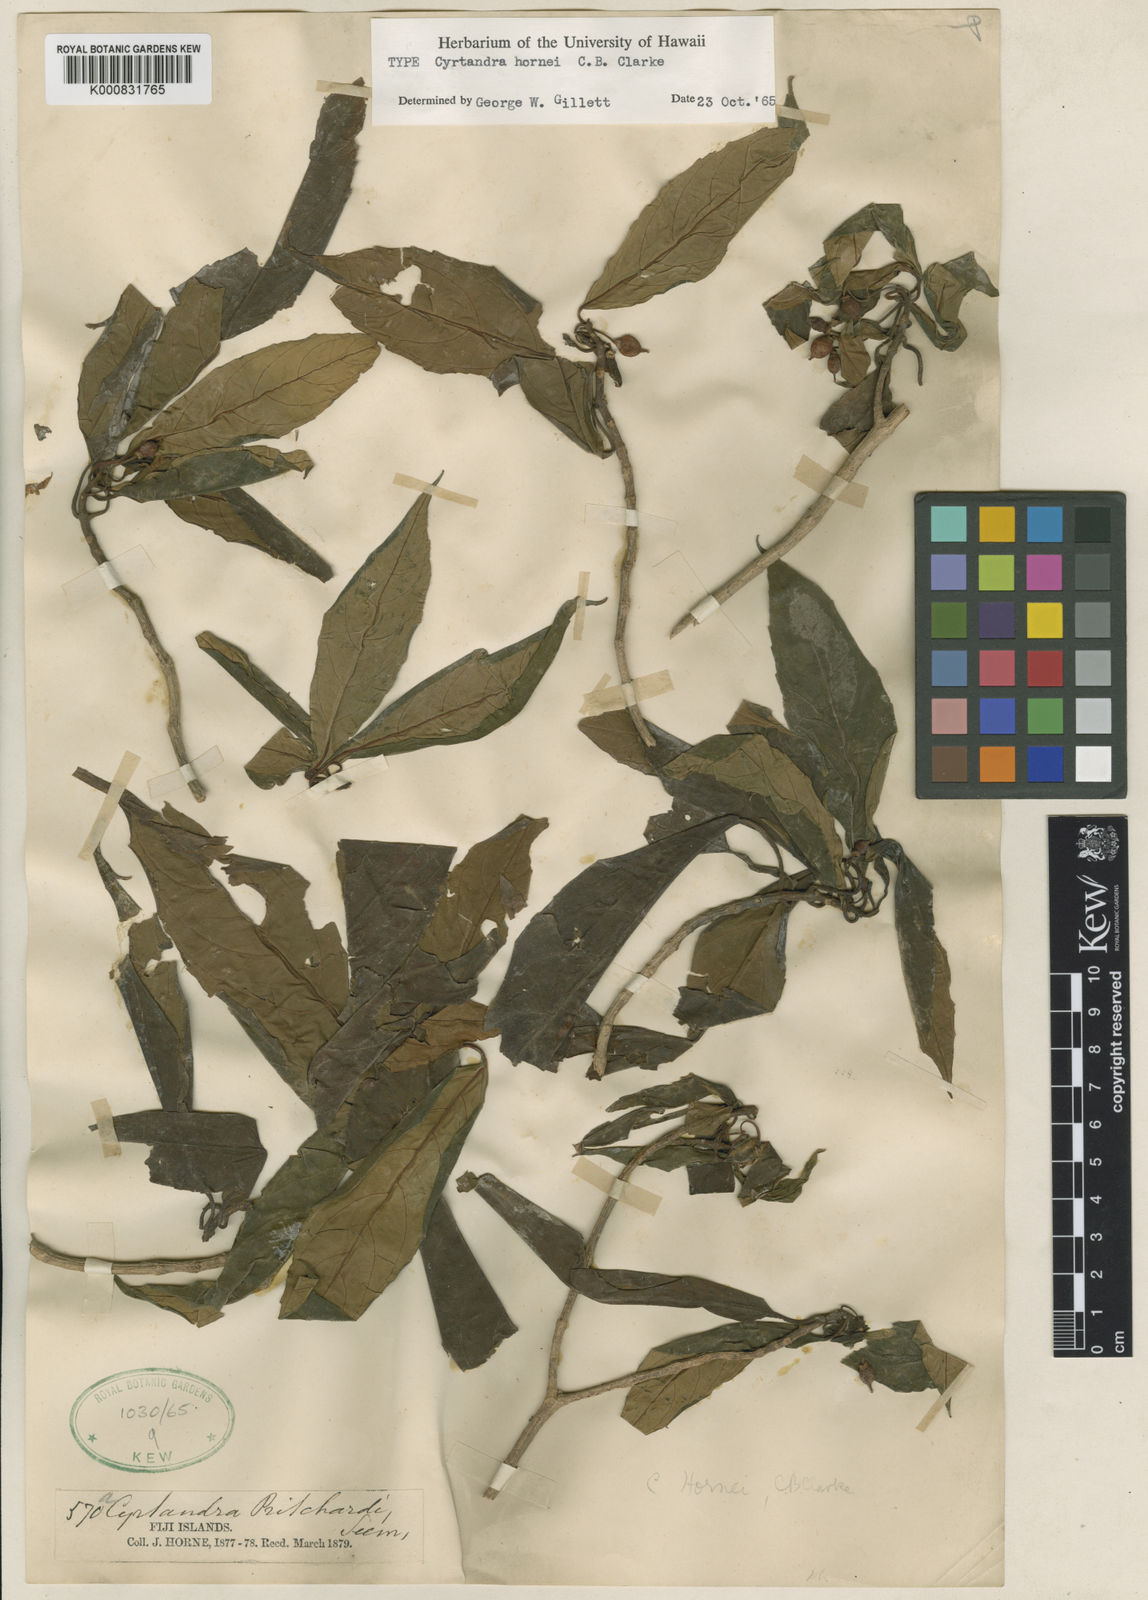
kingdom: Plantae
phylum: Tracheophyta
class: Magnoliopsida
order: Lamiales
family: Gesneriaceae
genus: Cyrtandra
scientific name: Cyrtandra hornei
